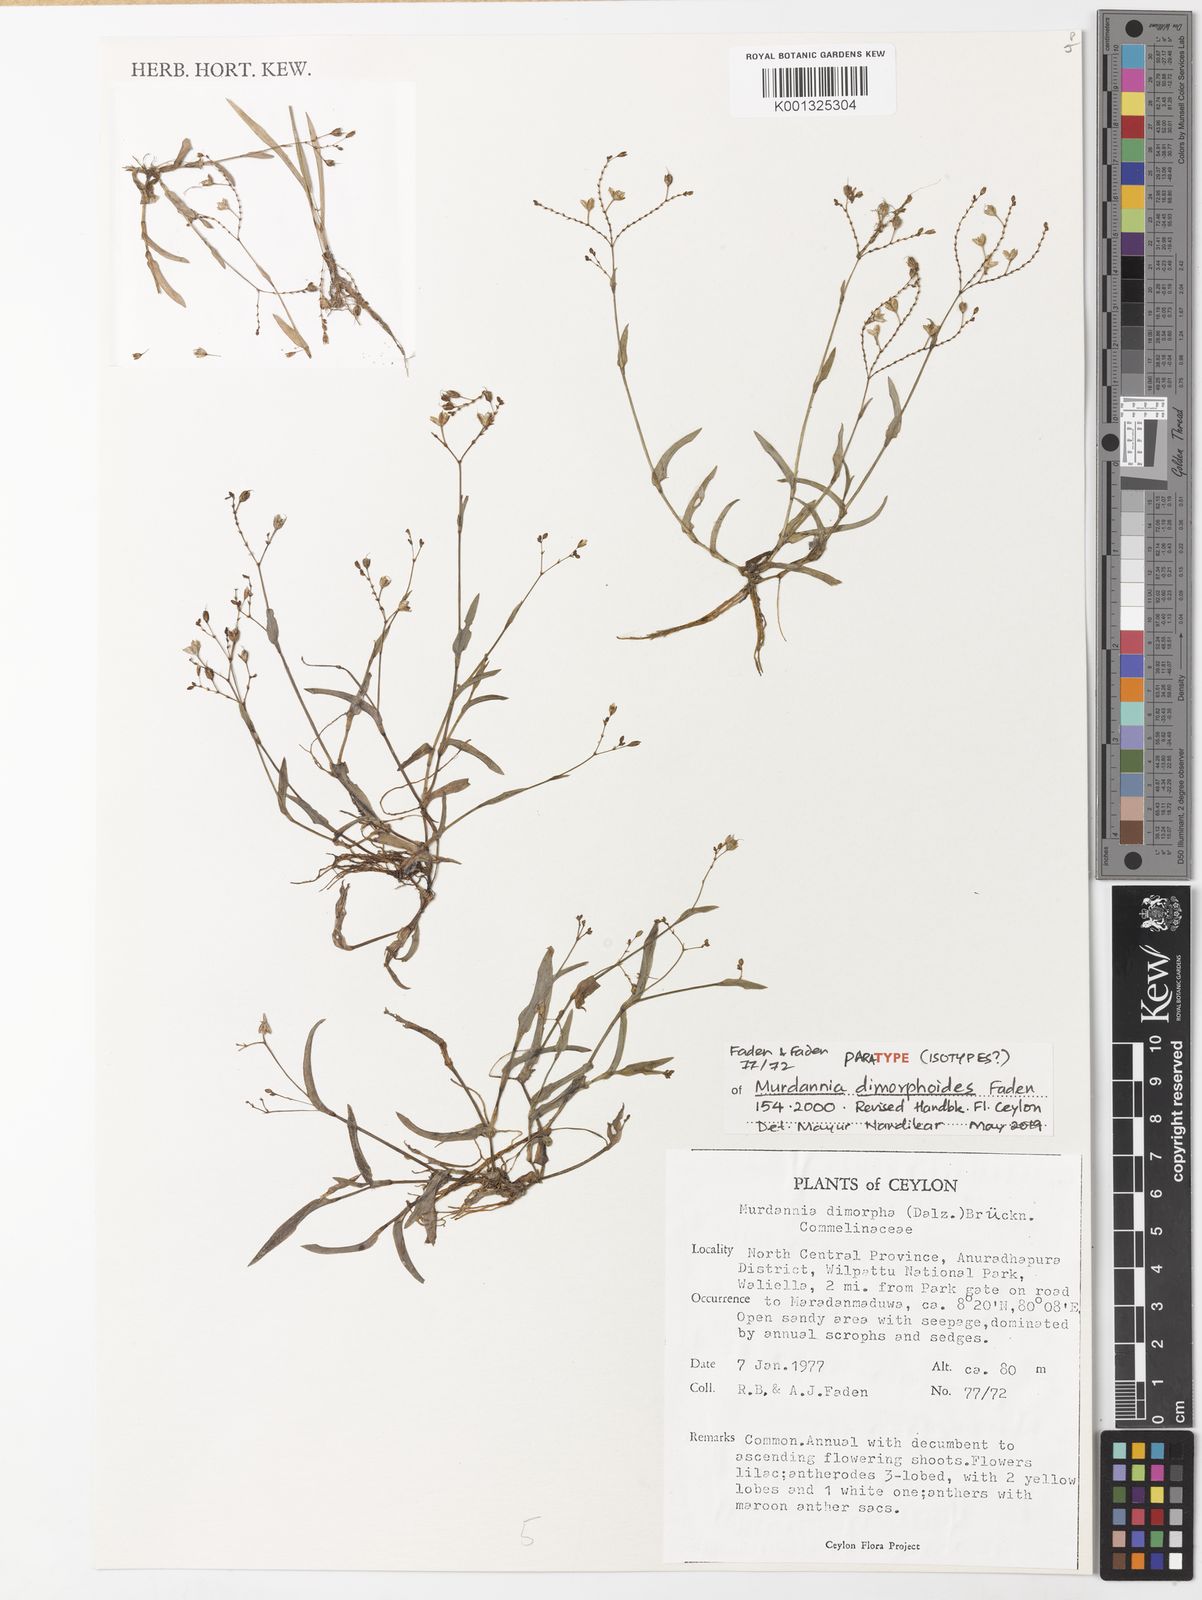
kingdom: Plantae
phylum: Tracheophyta
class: Liliopsida
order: Commelinales
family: Commelinaceae
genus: Murdannia
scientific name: Murdannia dimorphoides
